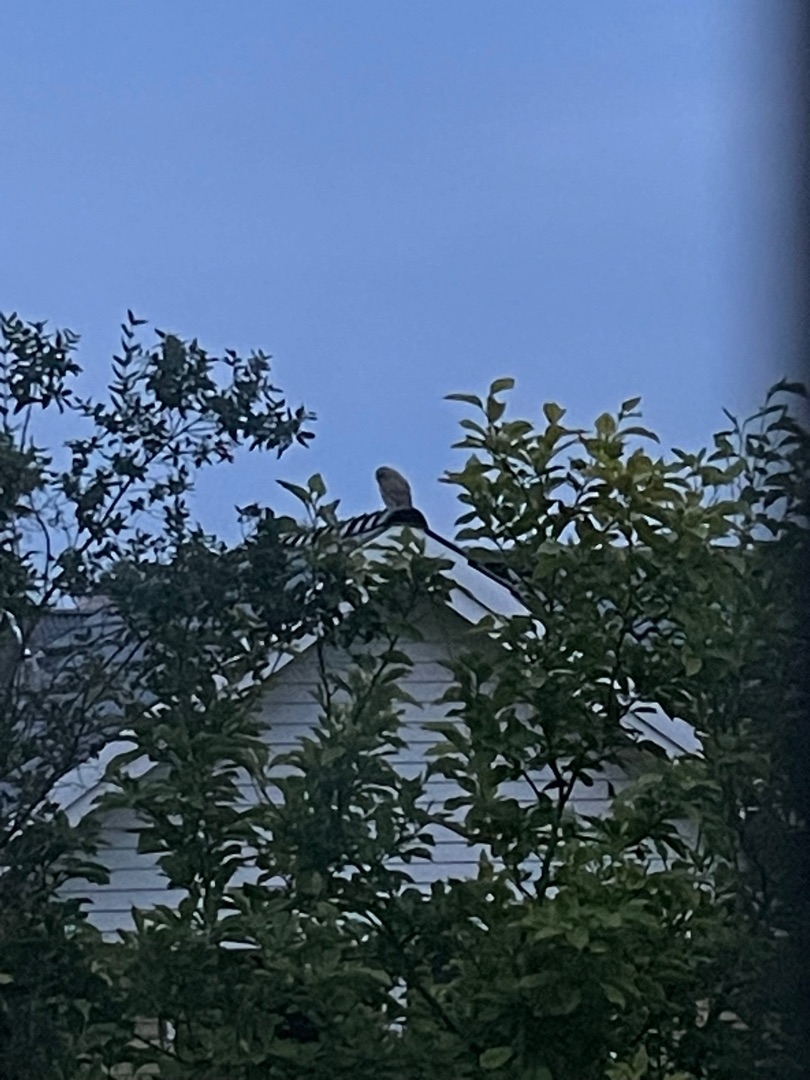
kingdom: Animalia
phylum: Chordata
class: Aves
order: Strigiformes
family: Strigidae
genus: Strix
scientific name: Strix aluco
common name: Natugle
